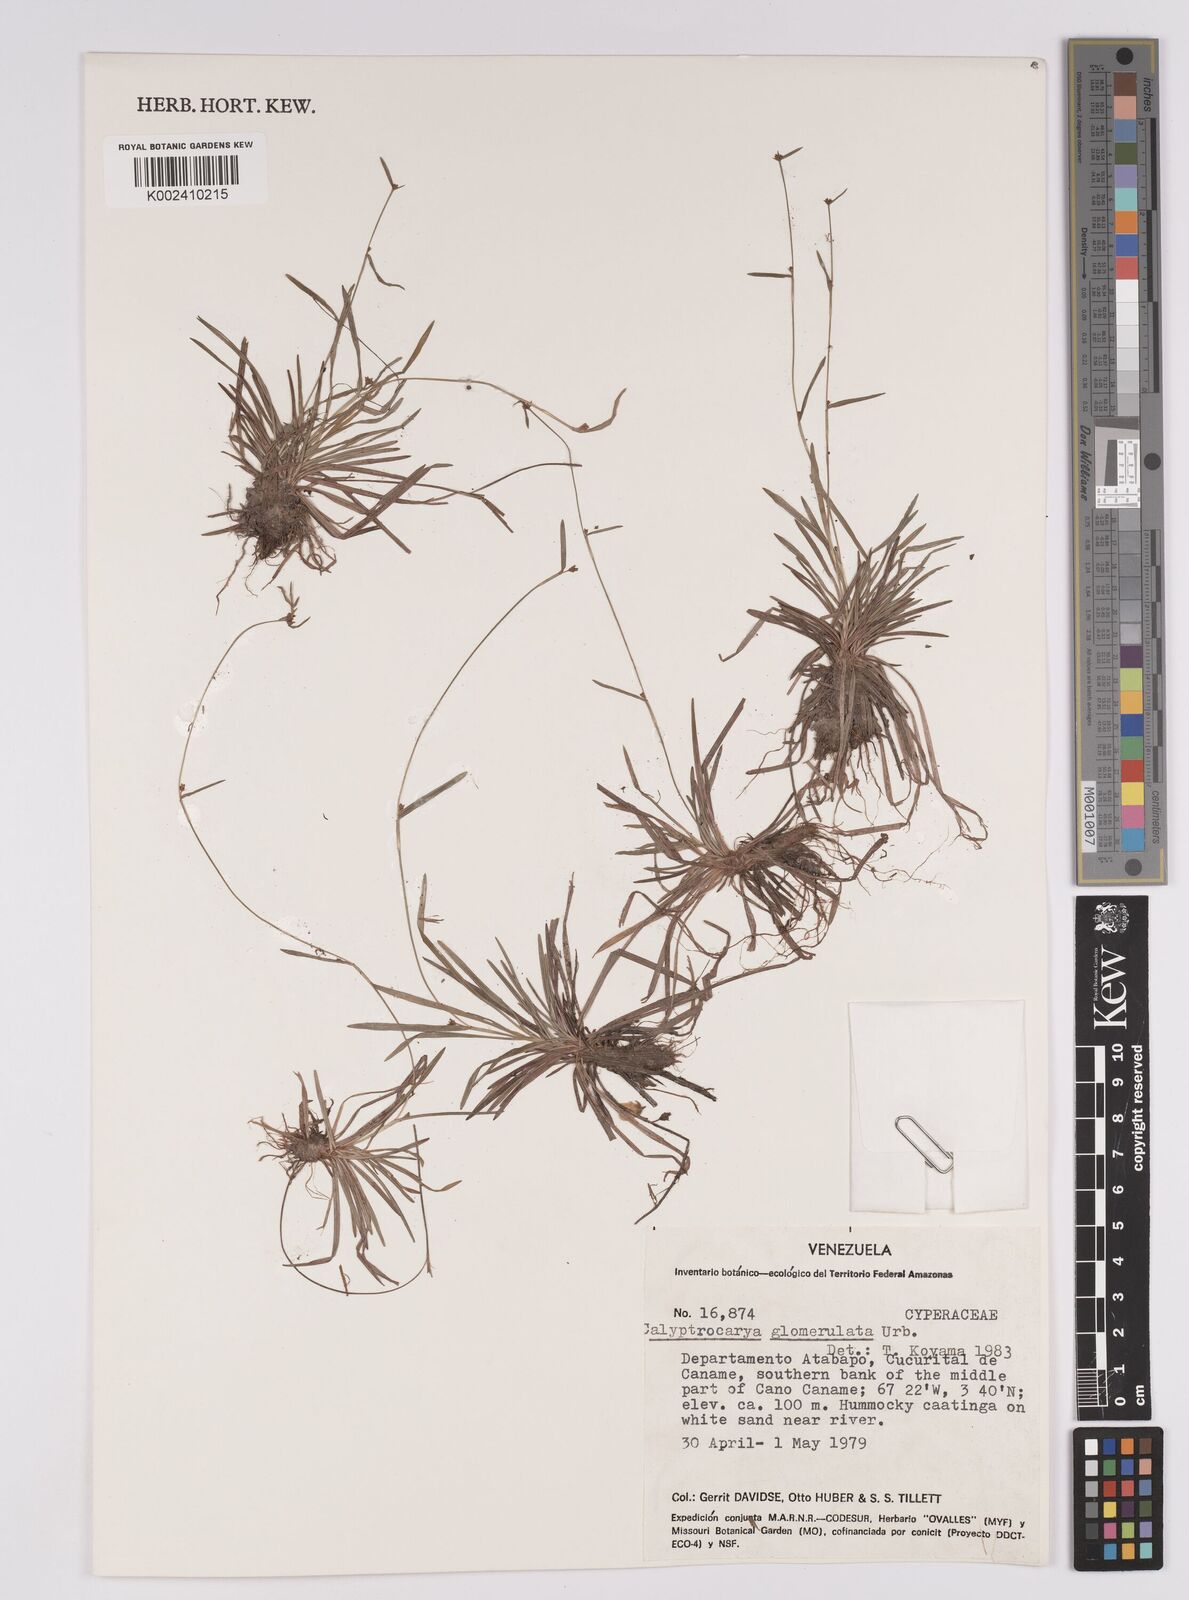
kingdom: Plantae
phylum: Tracheophyta
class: Liliopsida
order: Poales
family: Cyperaceae
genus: Calyptrocarya
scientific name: Calyptrocarya glomerulata
